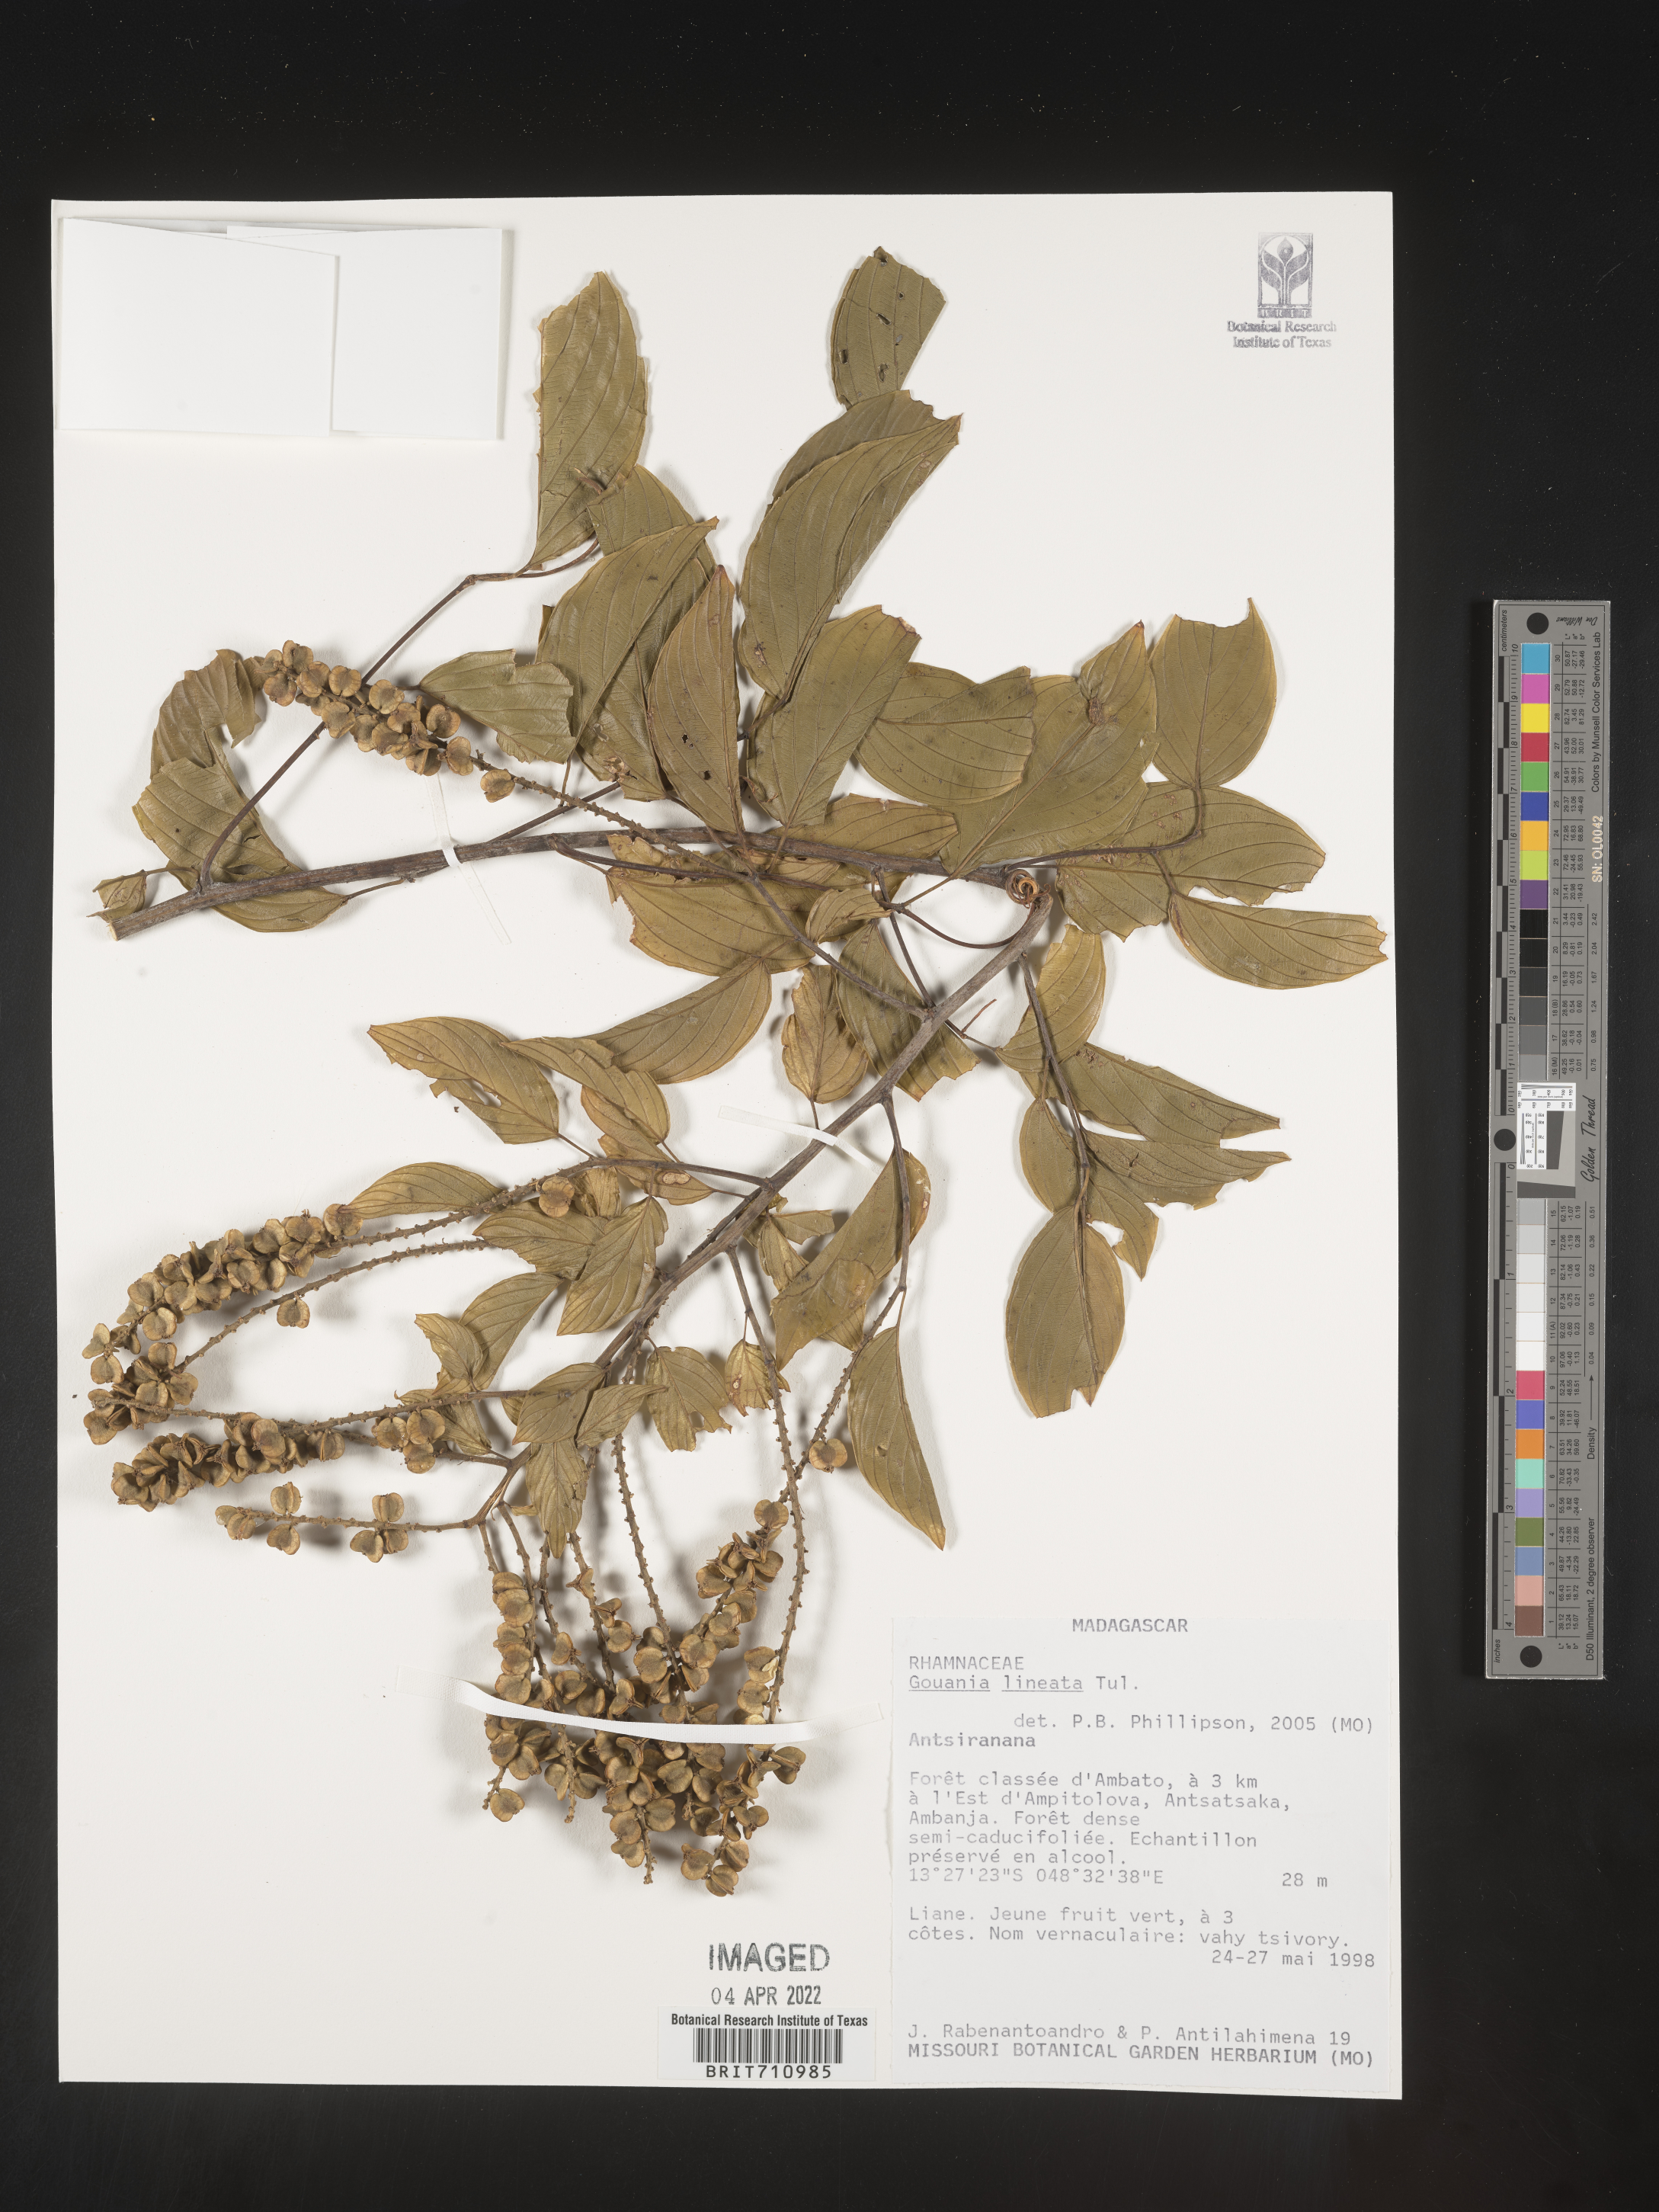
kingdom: Plantae
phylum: Tracheophyta
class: Magnoliopsida
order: Rosales
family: Rhamnaceae
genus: Gouania
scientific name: Gouania
